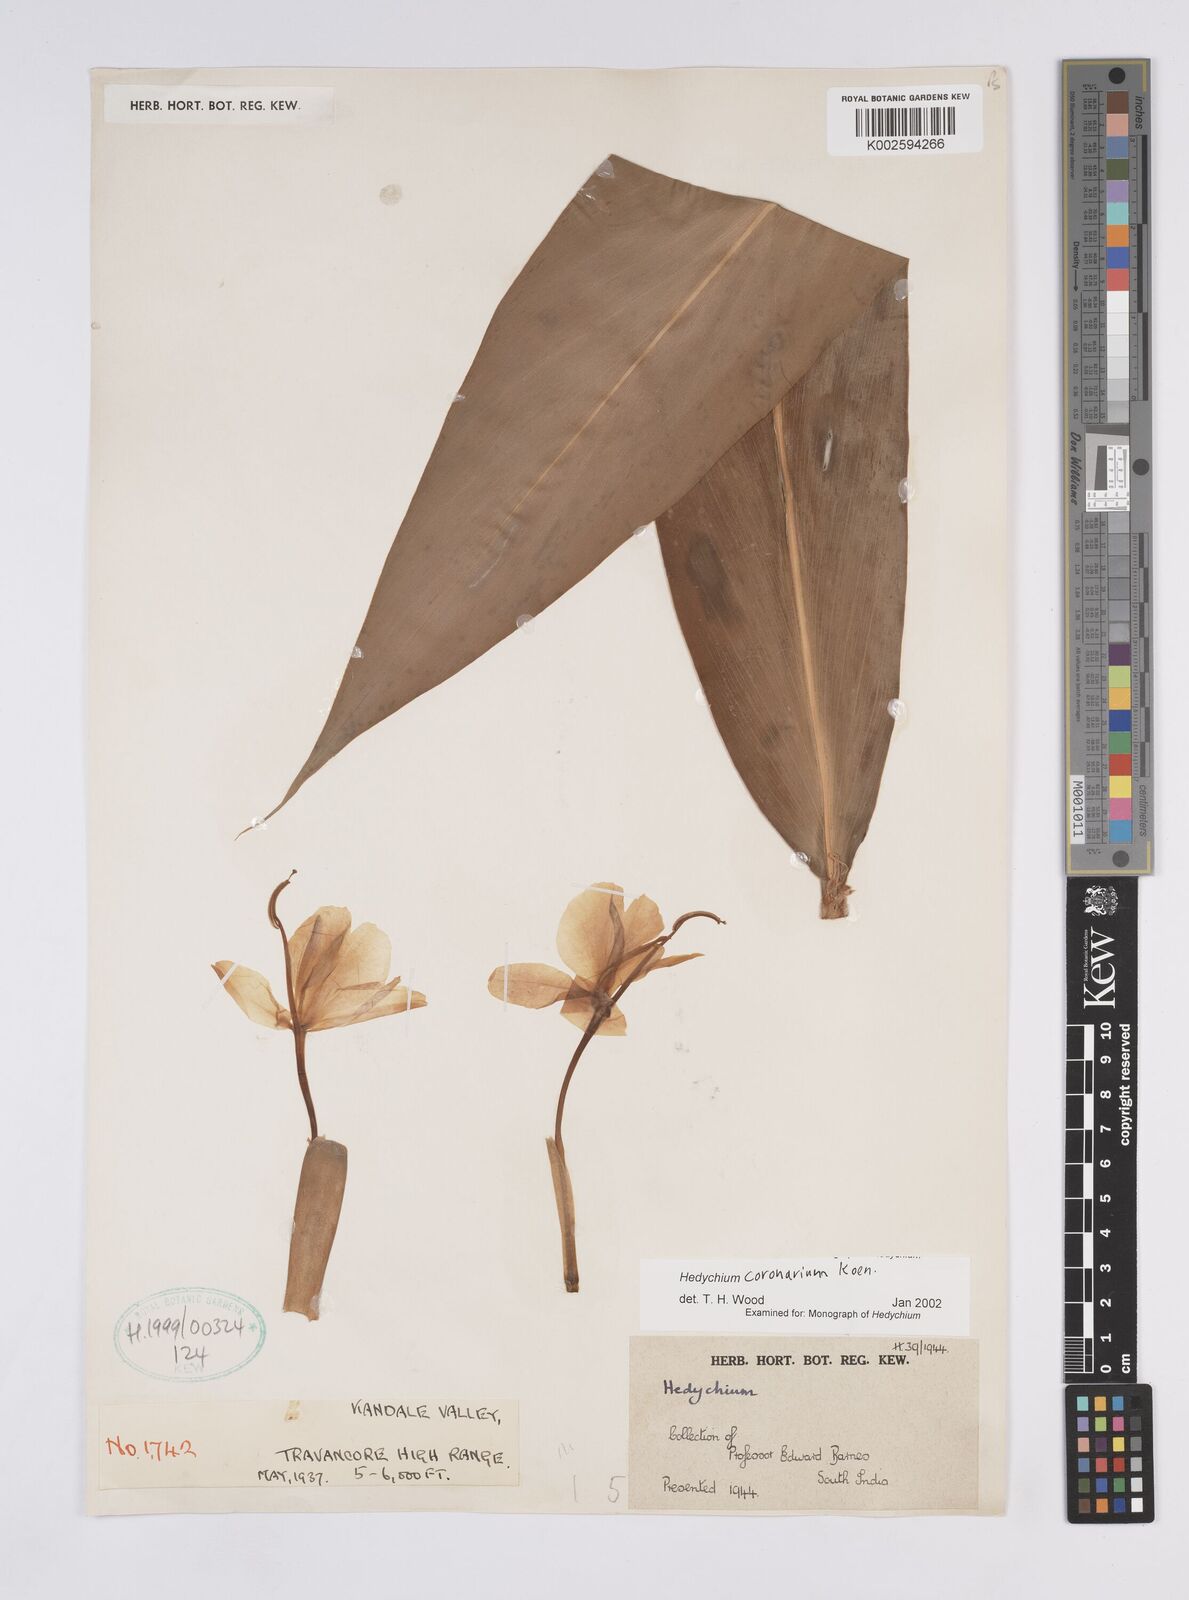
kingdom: Plantae
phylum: Tracheophyta
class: Liliopsida
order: Zingiberales
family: Zingiberaceae
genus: Hedychium
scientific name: Hedychium coronarium
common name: White garland-lily
